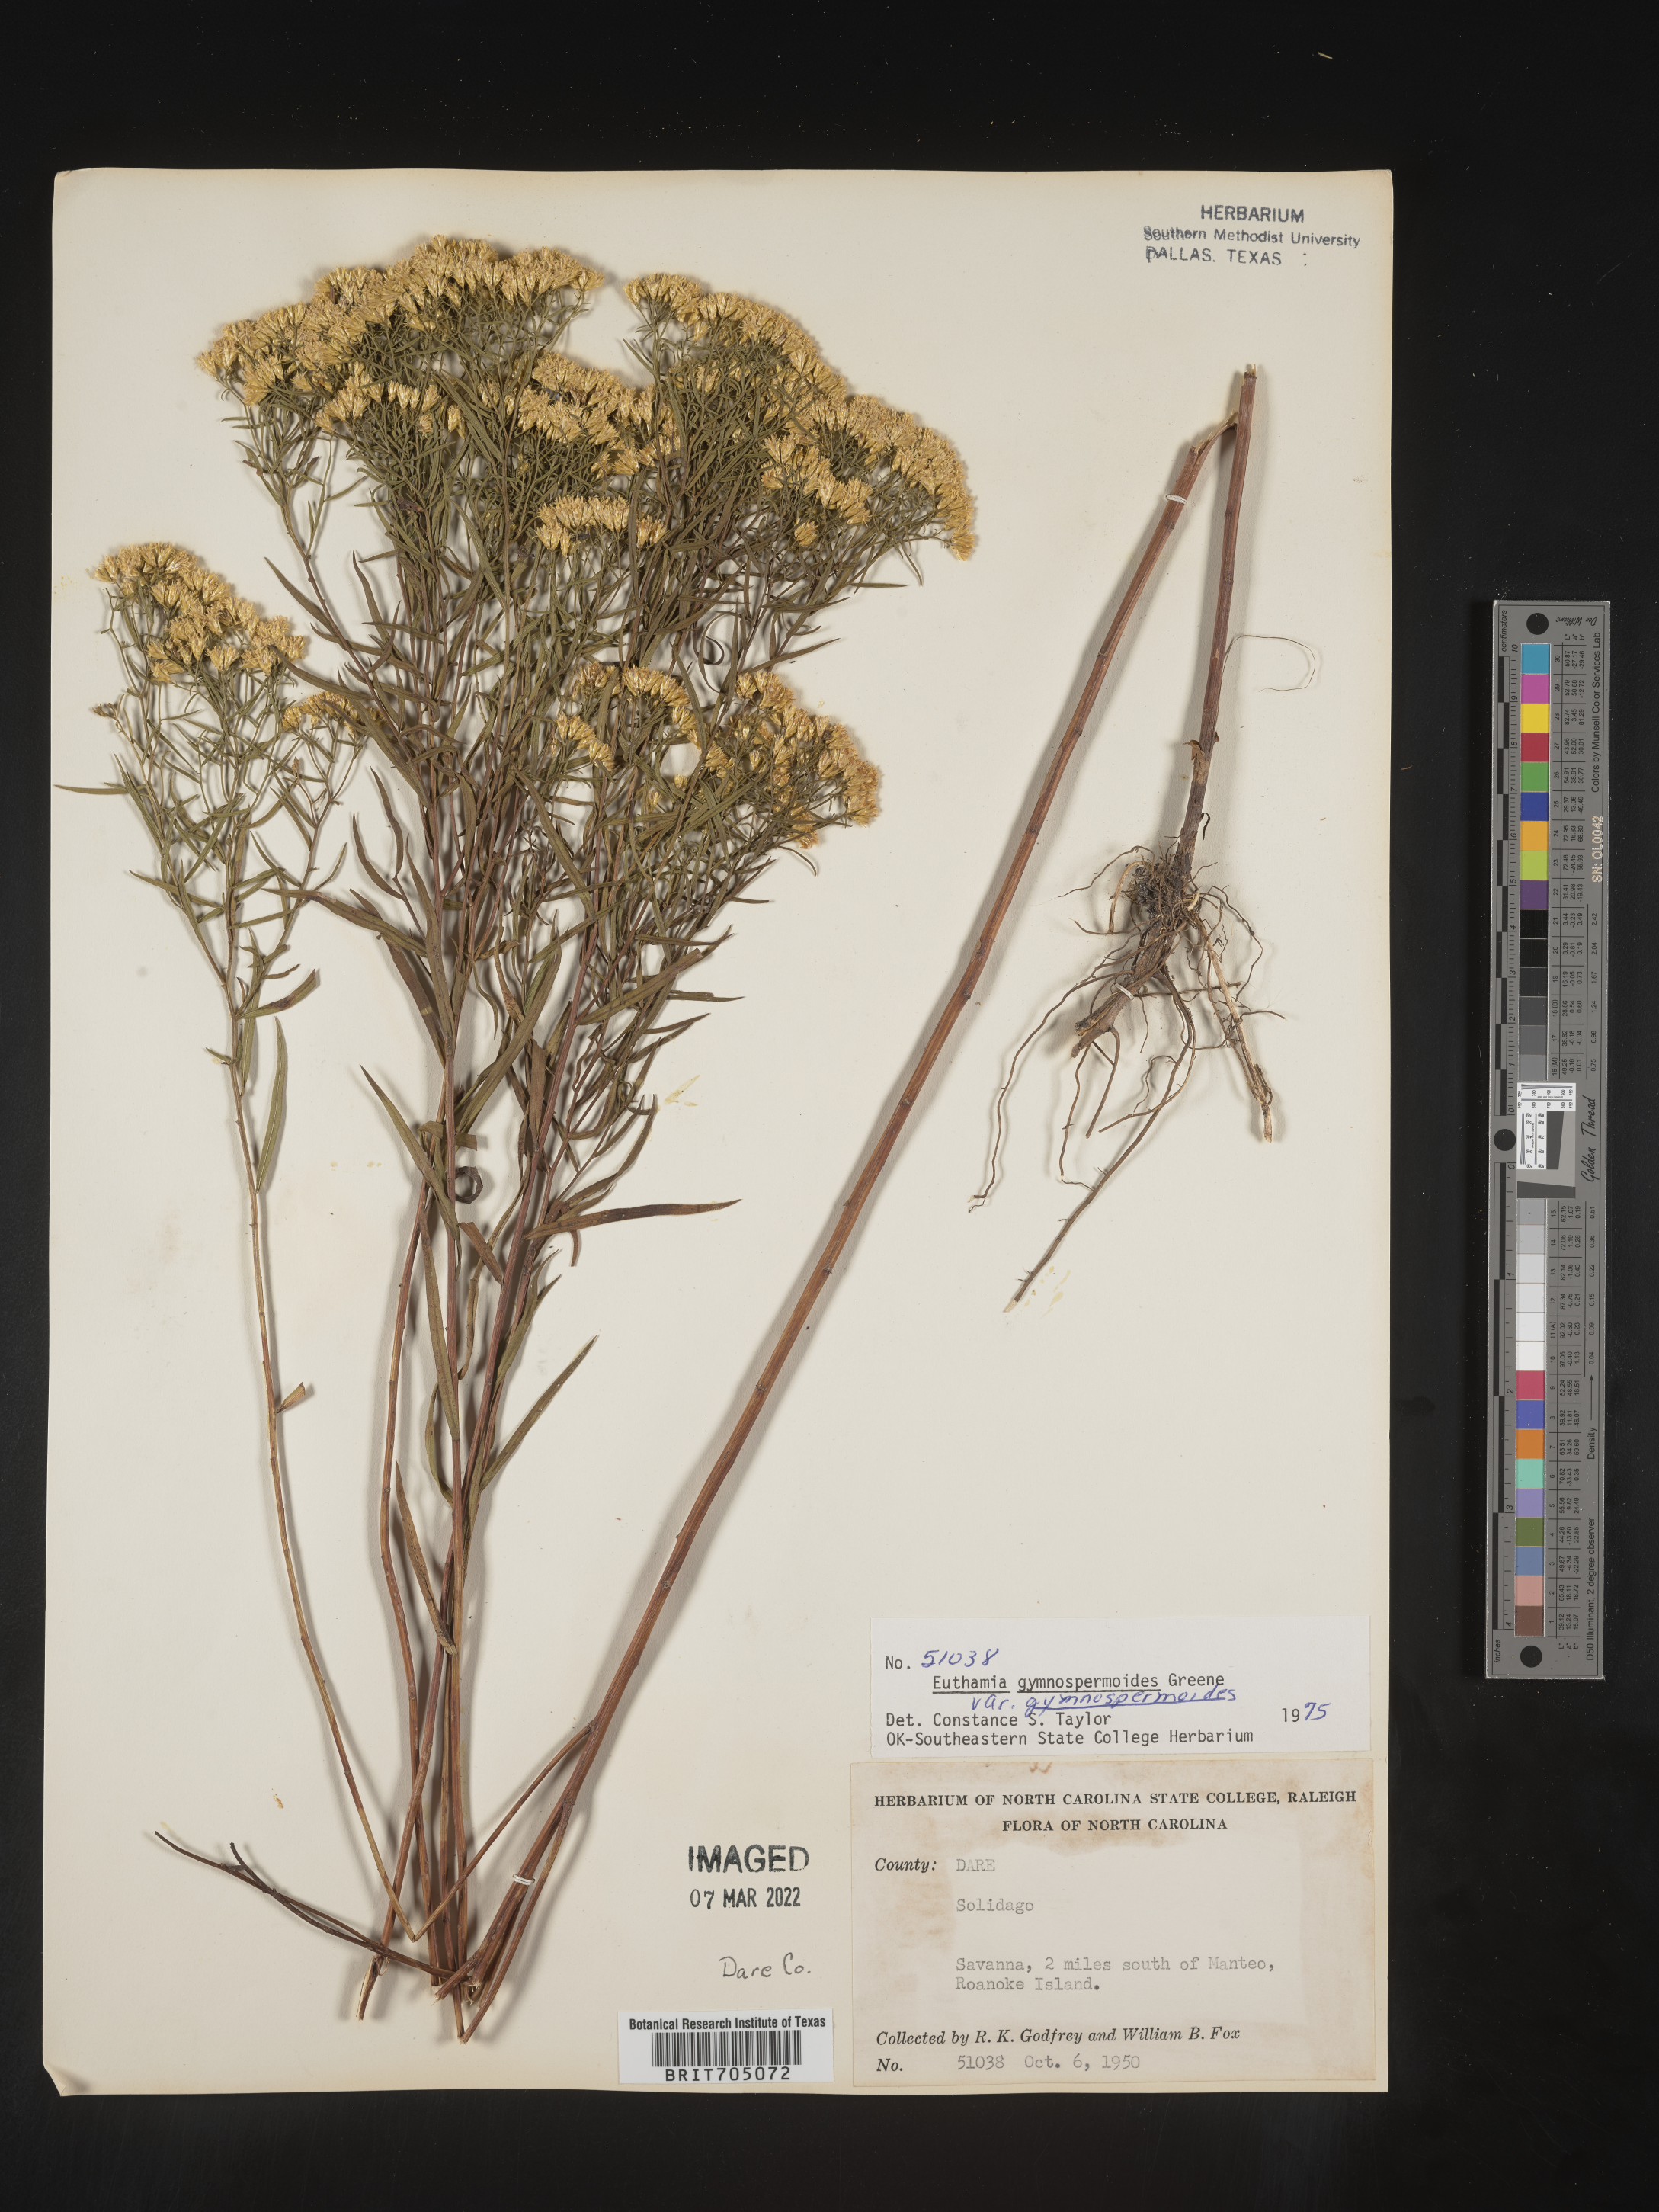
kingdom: Plantae
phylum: Tracheophyta
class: Magnoliopsida
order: Asterales
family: Asteraceae
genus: Euthamia
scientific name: Euthamia gymnospermoides
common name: Great plains goldentop
